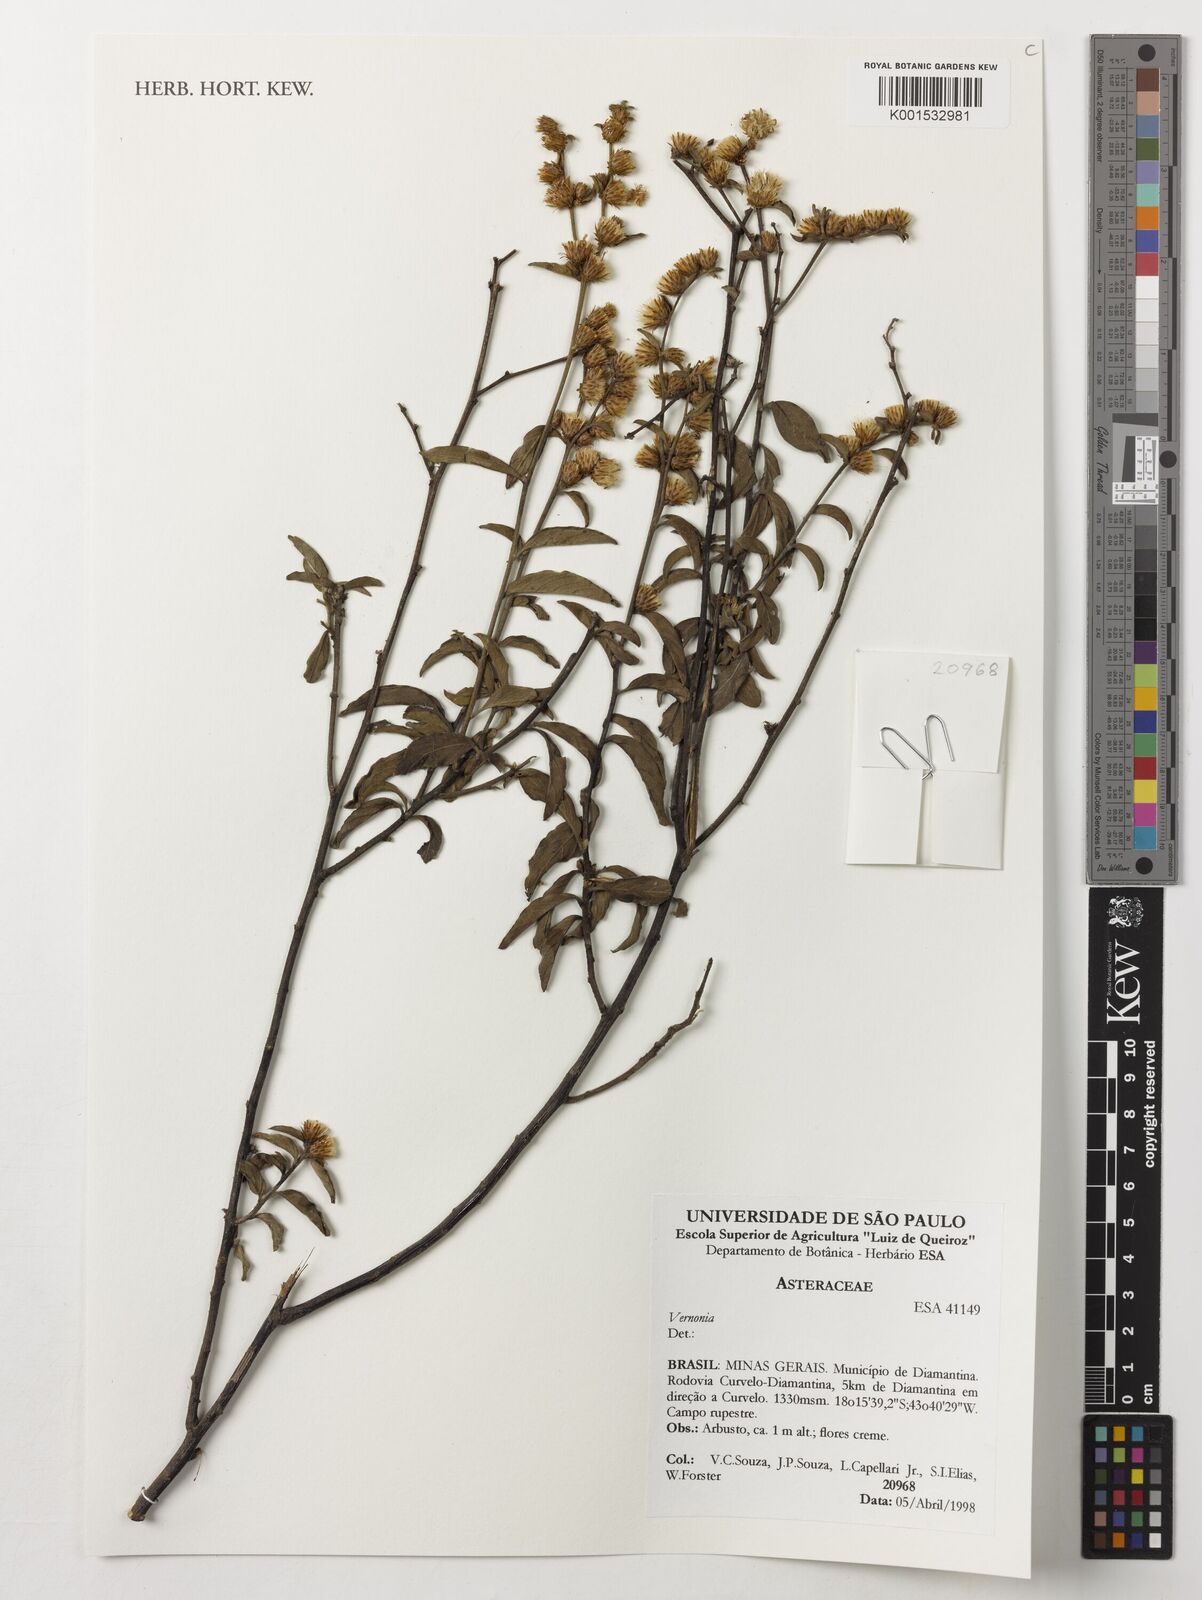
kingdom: Plantae
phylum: Tracheophyta
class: Magnoliopsida
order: Asterales
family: Asteraceae
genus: Vernonia
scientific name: Vernonia
